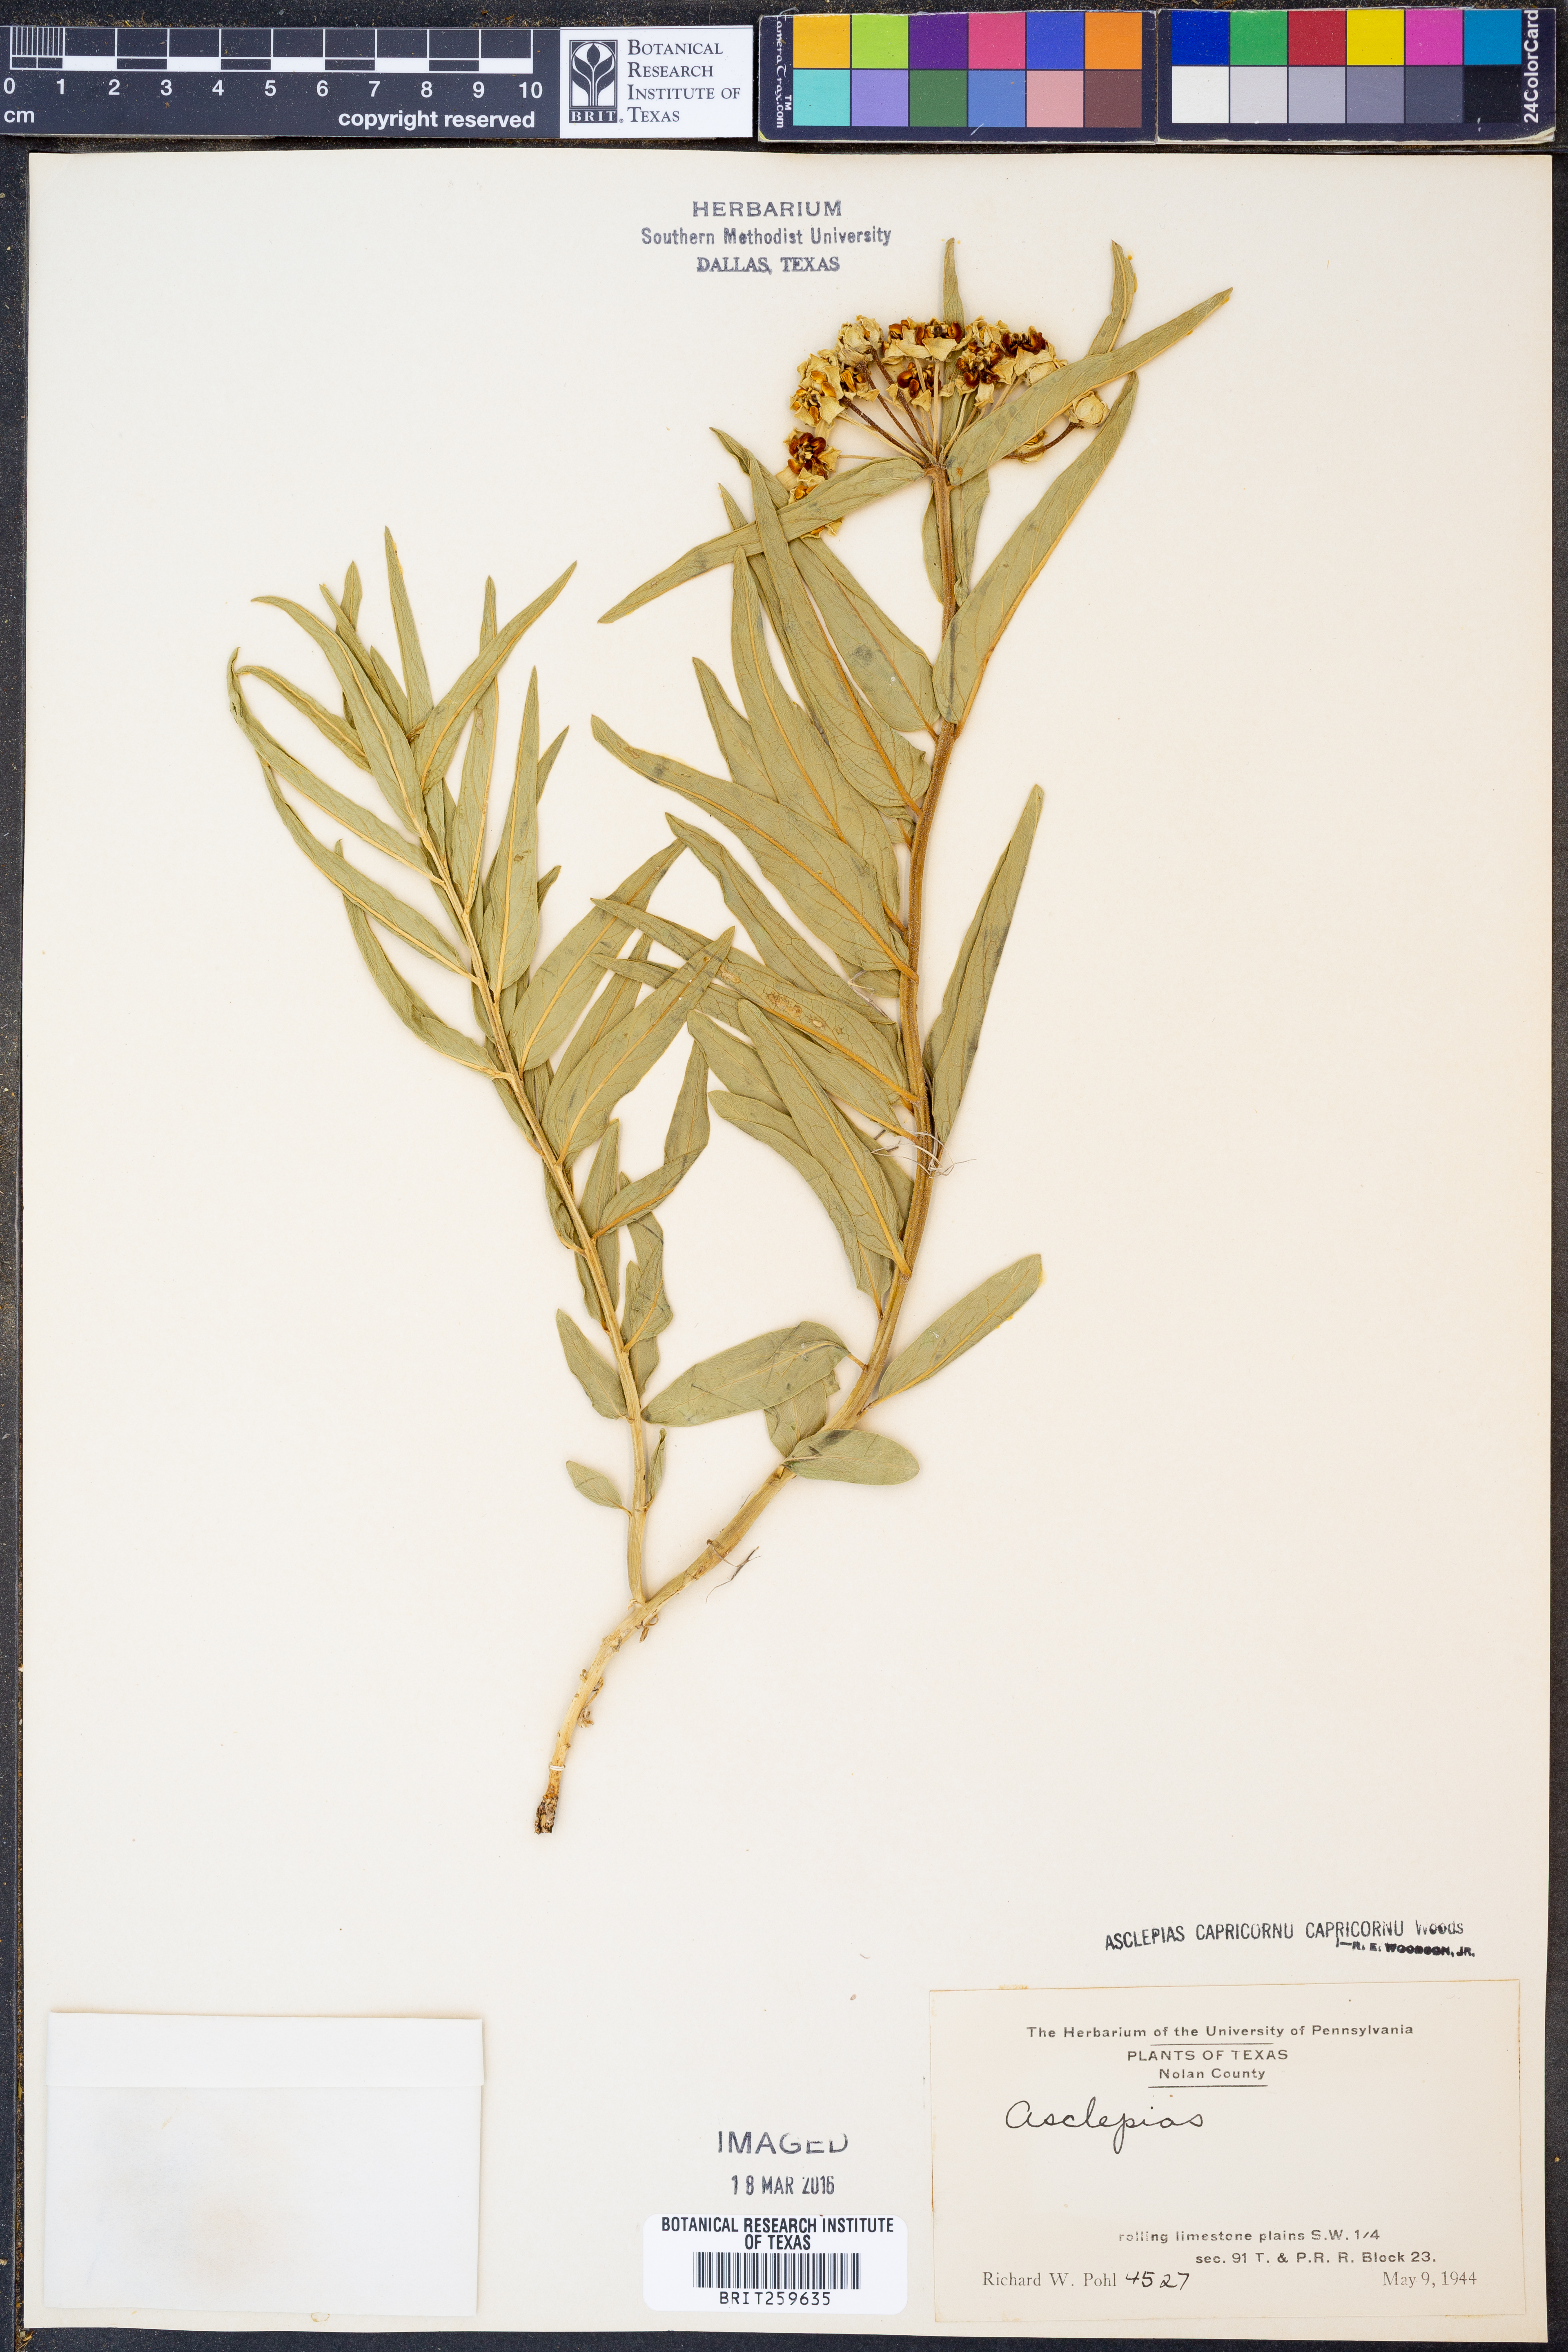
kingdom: Plantae
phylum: Tracheophyta
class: Magnoliopsida
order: Gentianales
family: Apocynaceae
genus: Asclepias
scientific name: Asclepias asperula
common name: Antelope horns
